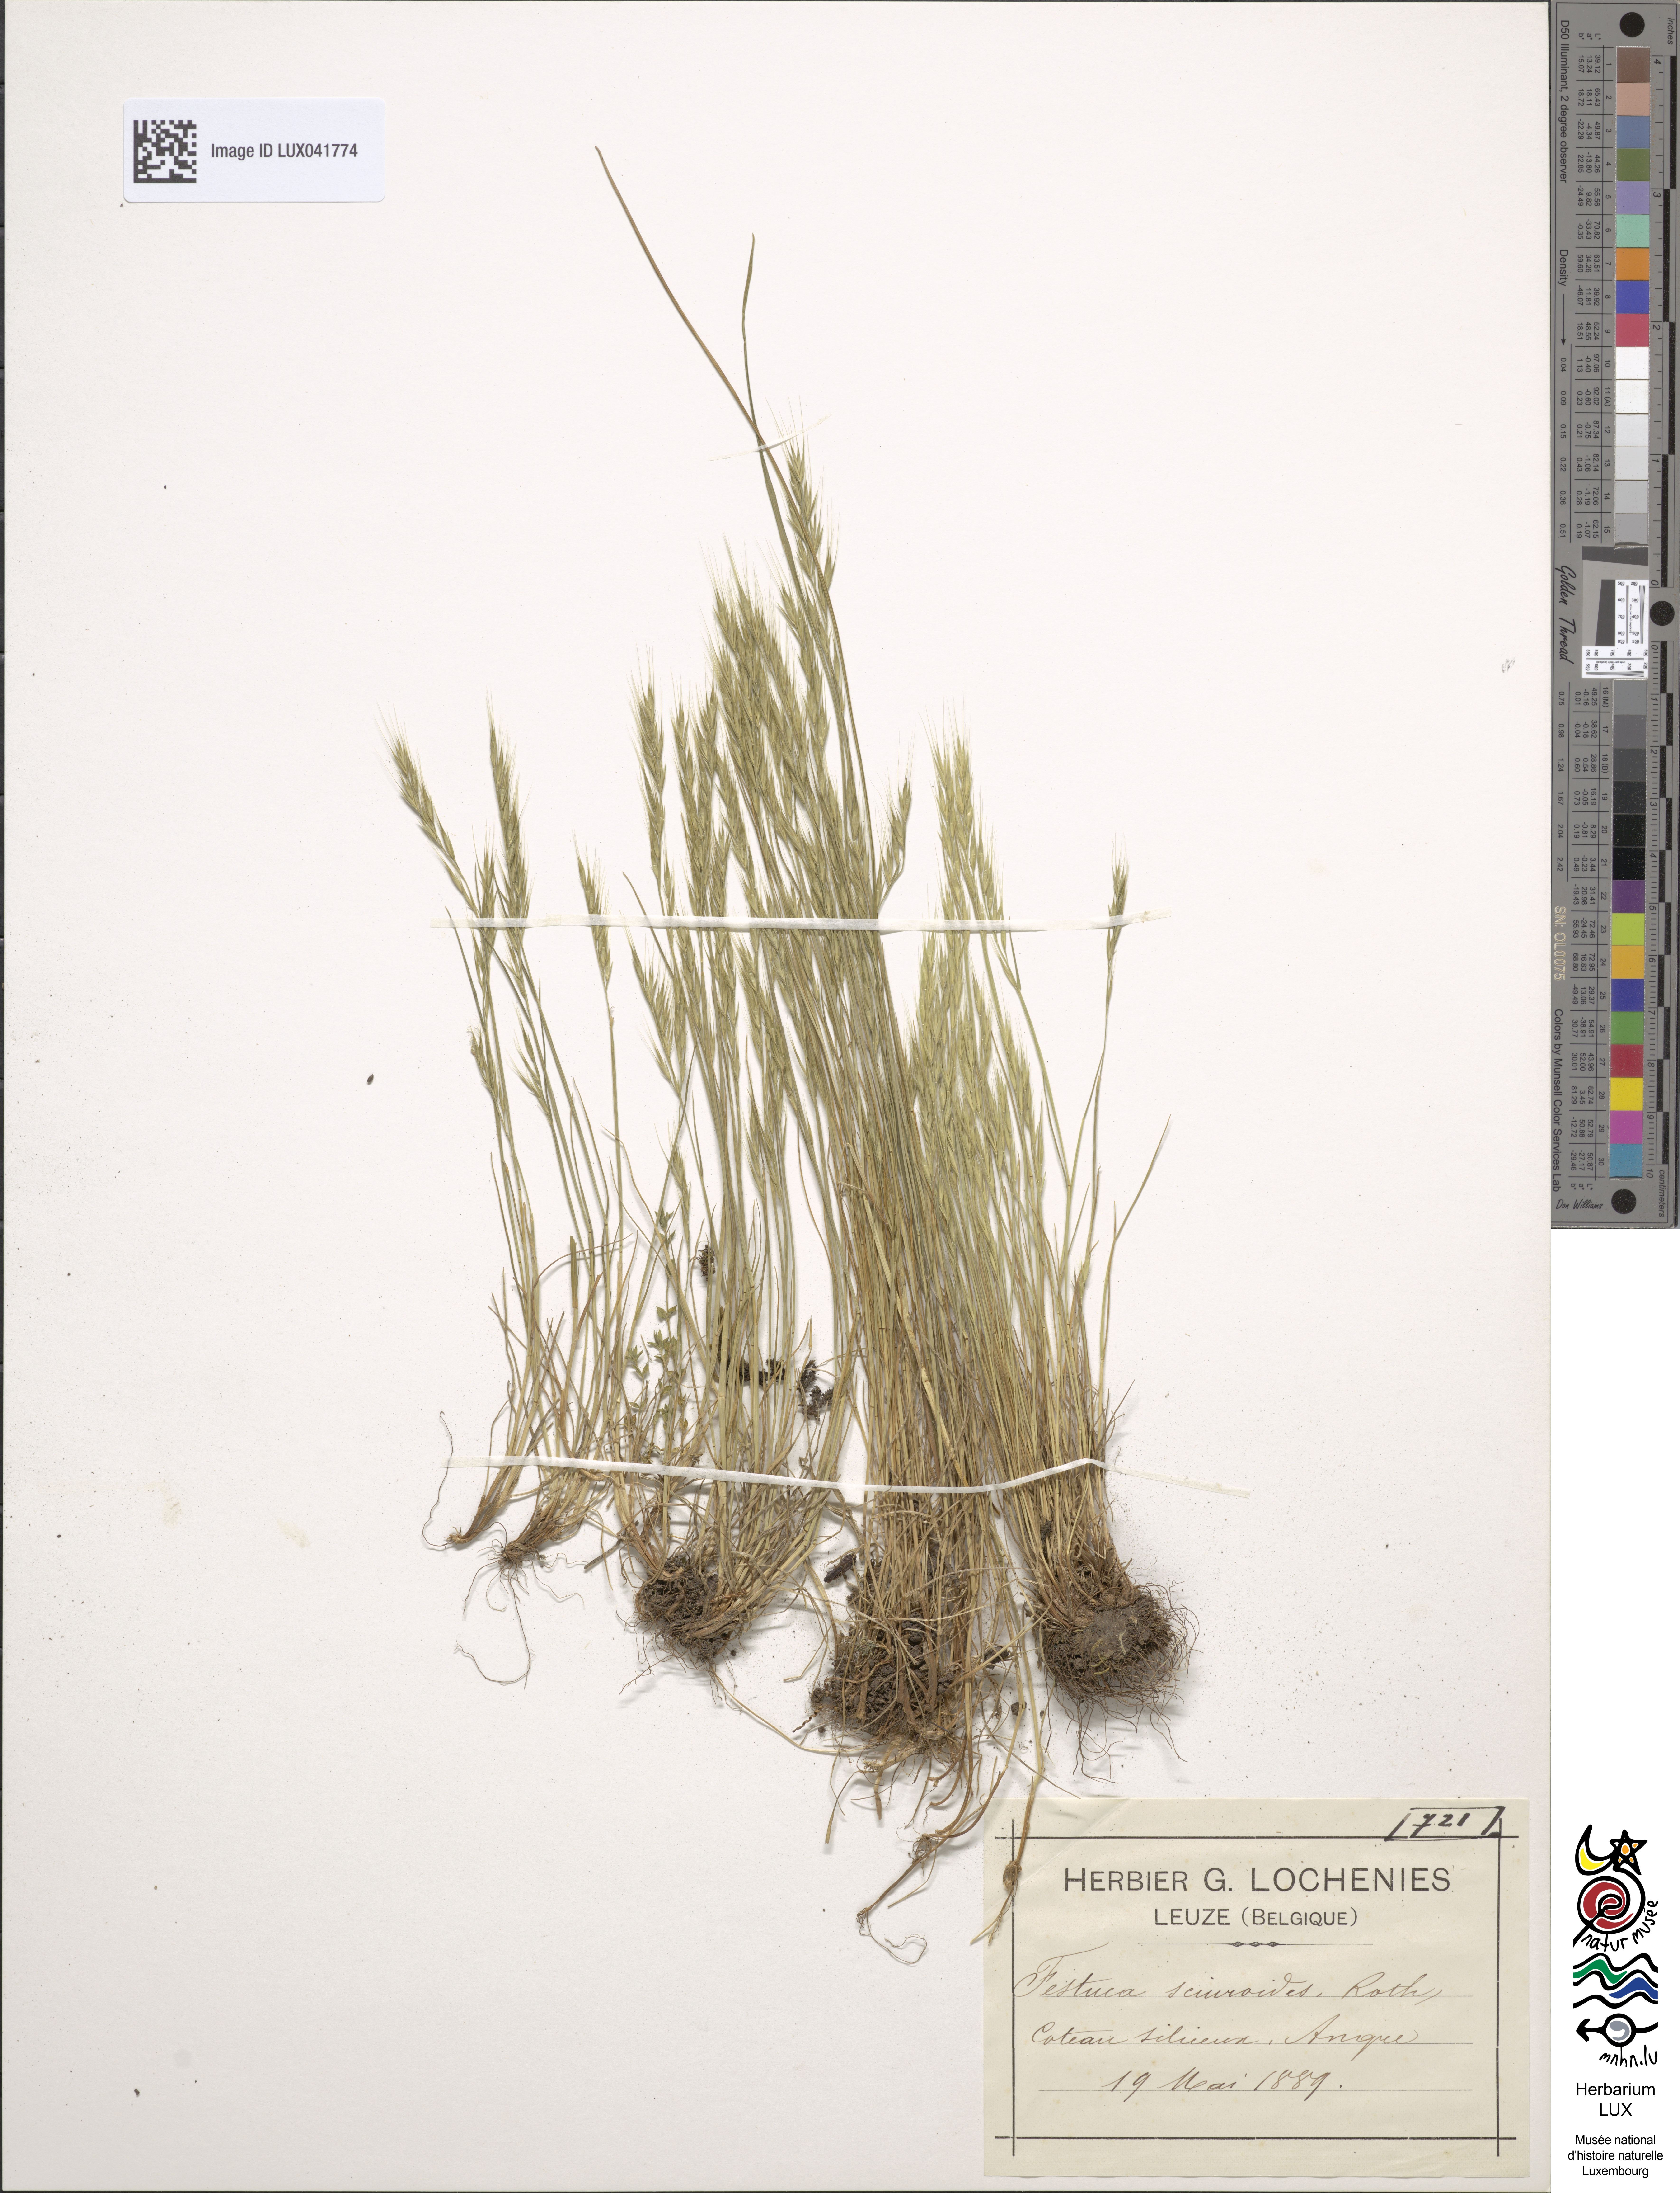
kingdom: Plantae
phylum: Tracheophyta
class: Liliopsida
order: Poales
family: Poaceae
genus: Festuca
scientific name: Festuca bromoides
